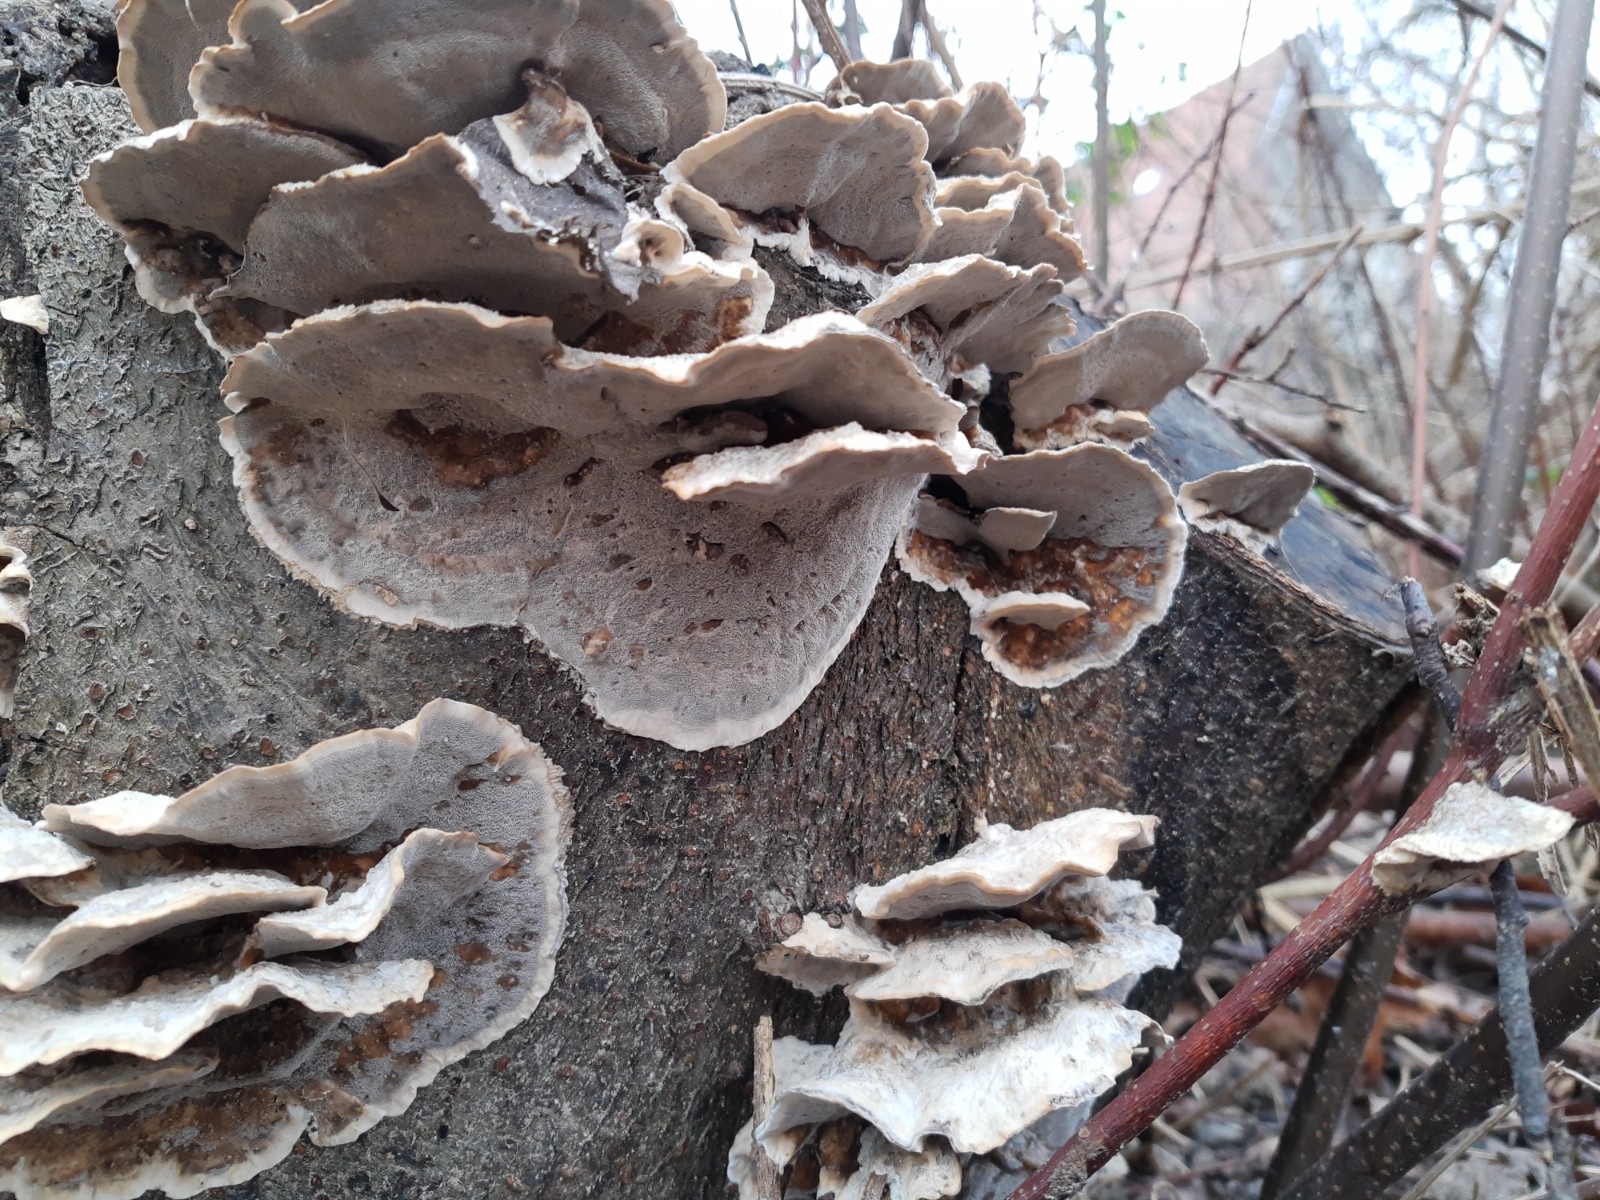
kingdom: Fungi
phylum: Basidiomycota
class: Agaricomycetes
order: Polyporales
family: Phanerochaetaceae
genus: Bjerkandera
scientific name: Bjerkandera adusta
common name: sveden sodporesvamp
